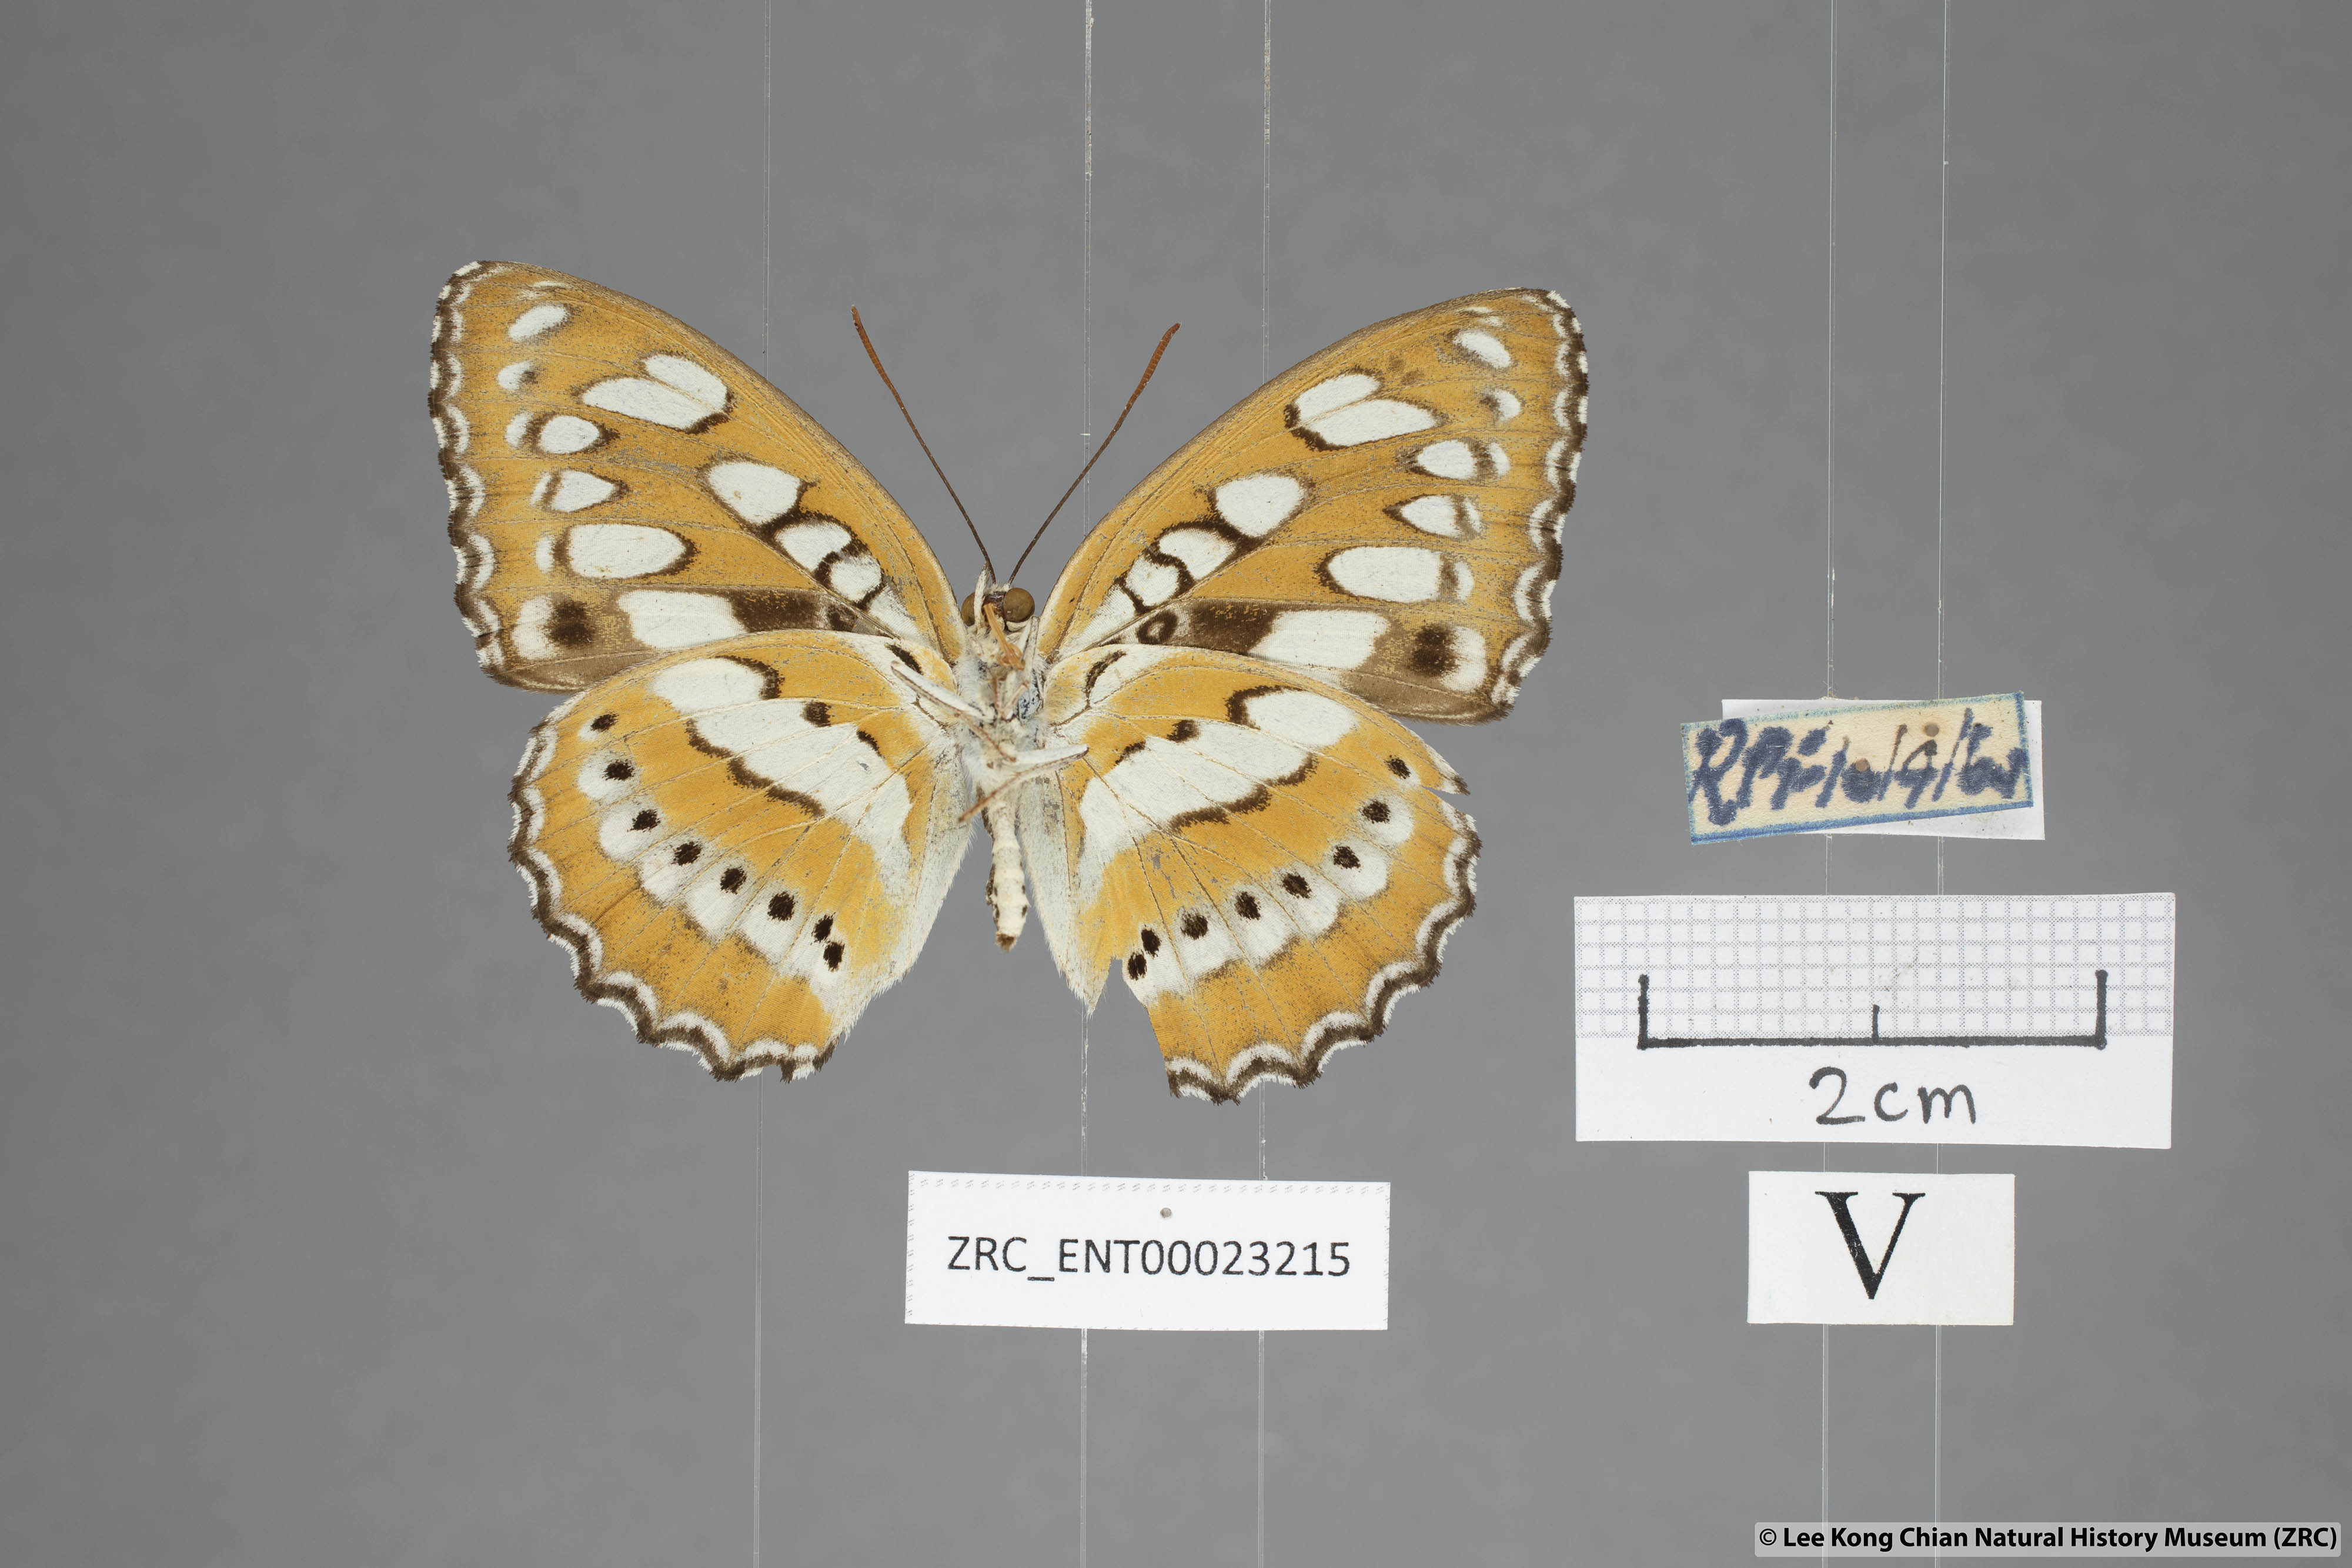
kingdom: Animalia
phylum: Arthropoda
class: Insecta
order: Lepidoptera
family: Nymphalidae
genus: Parathyma
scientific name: Parathyma perius
